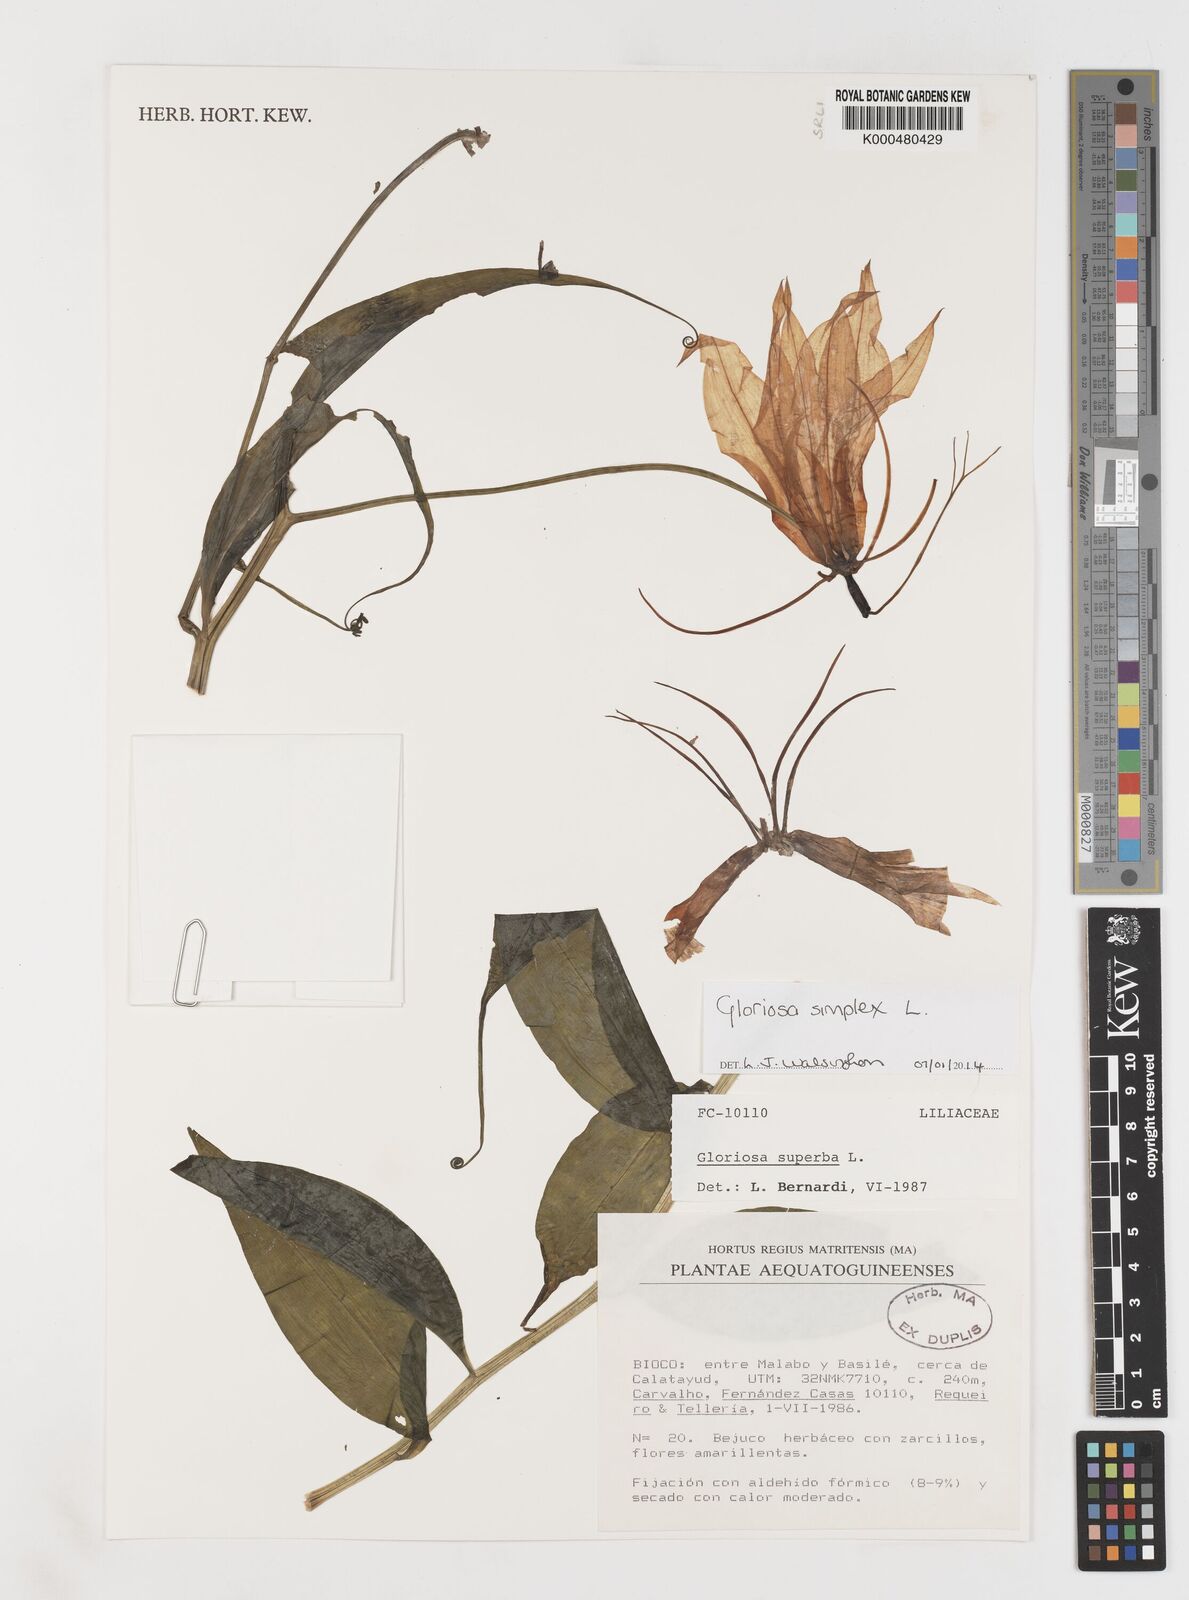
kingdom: Plantae
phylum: Tracheophyta
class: Liliopsida
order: Liliales
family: Colchicaceae
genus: Gloriosa
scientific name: Gloriosa simplex
